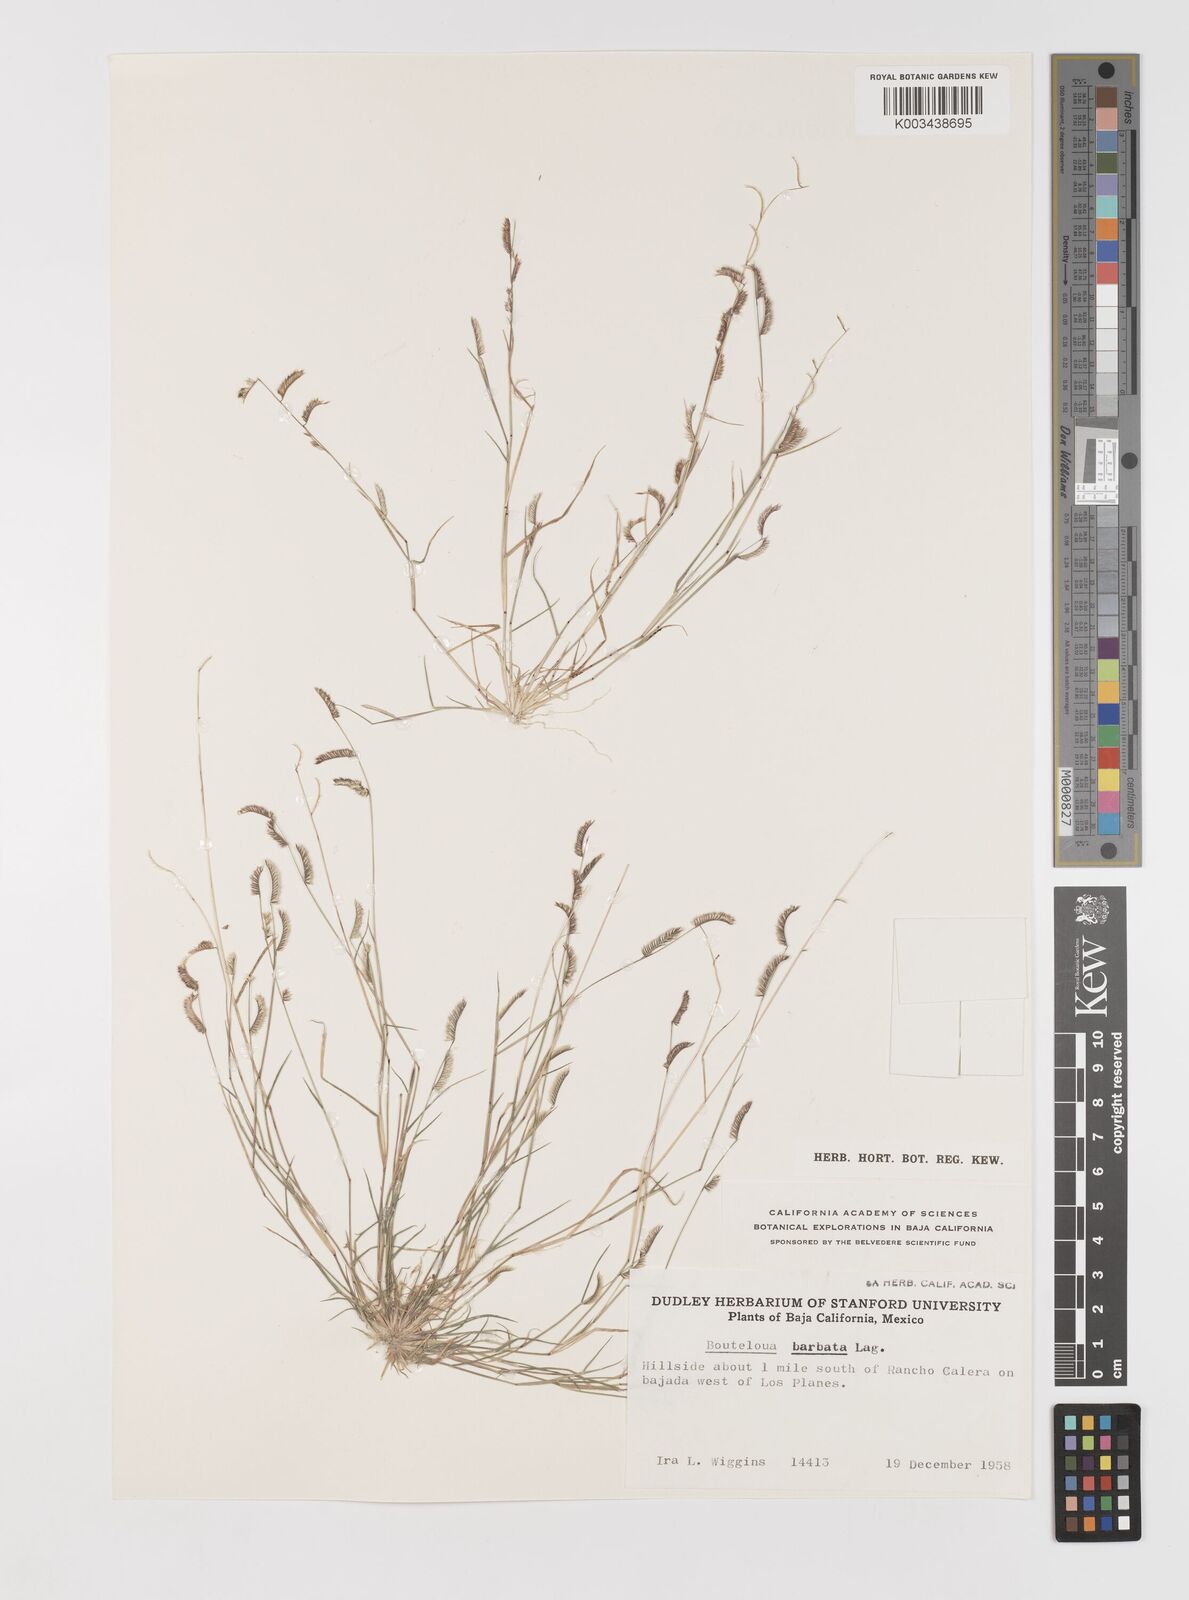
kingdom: Plantae
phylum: Tracheophyta
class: Liliopsida
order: Poales
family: Poaceae
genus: Bouteloua
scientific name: Bouteloua
